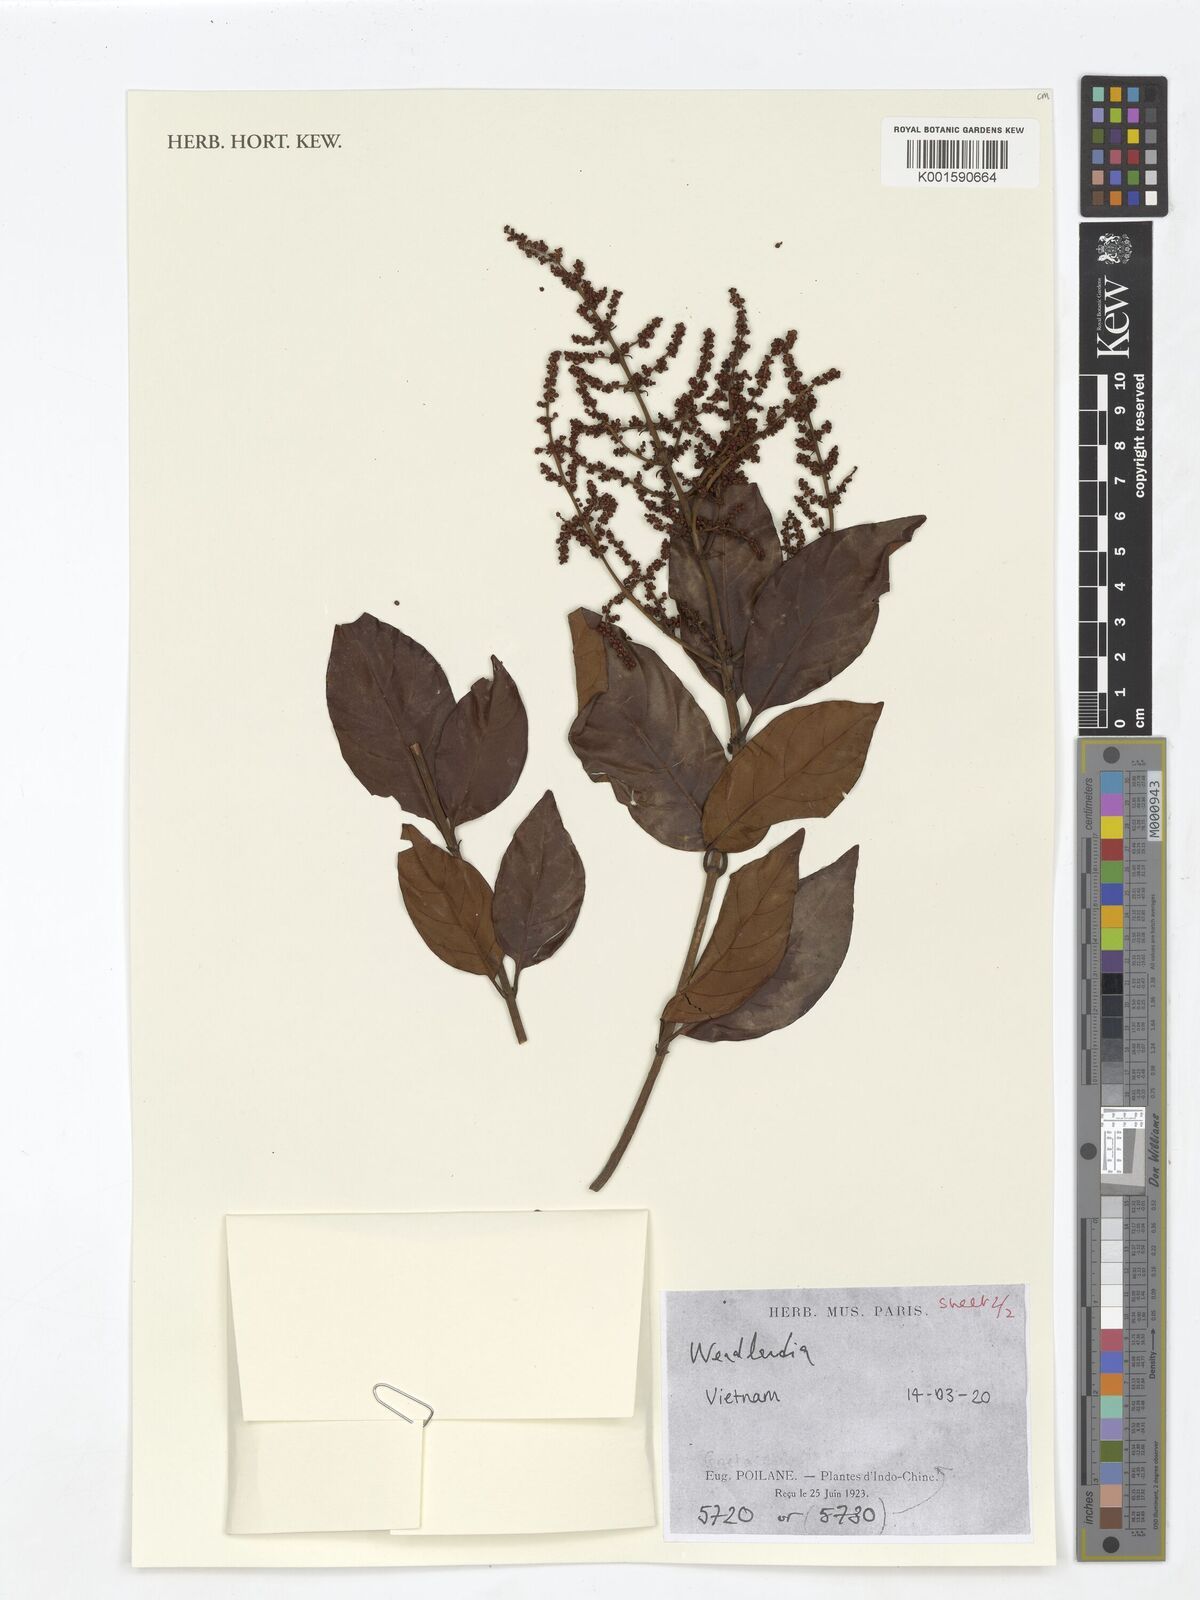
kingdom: Plantae
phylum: Tracheophyta
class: Magnoliopsida
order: Gentianales
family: Rubiaceae
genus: Wendlandia
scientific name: Wendlandia
